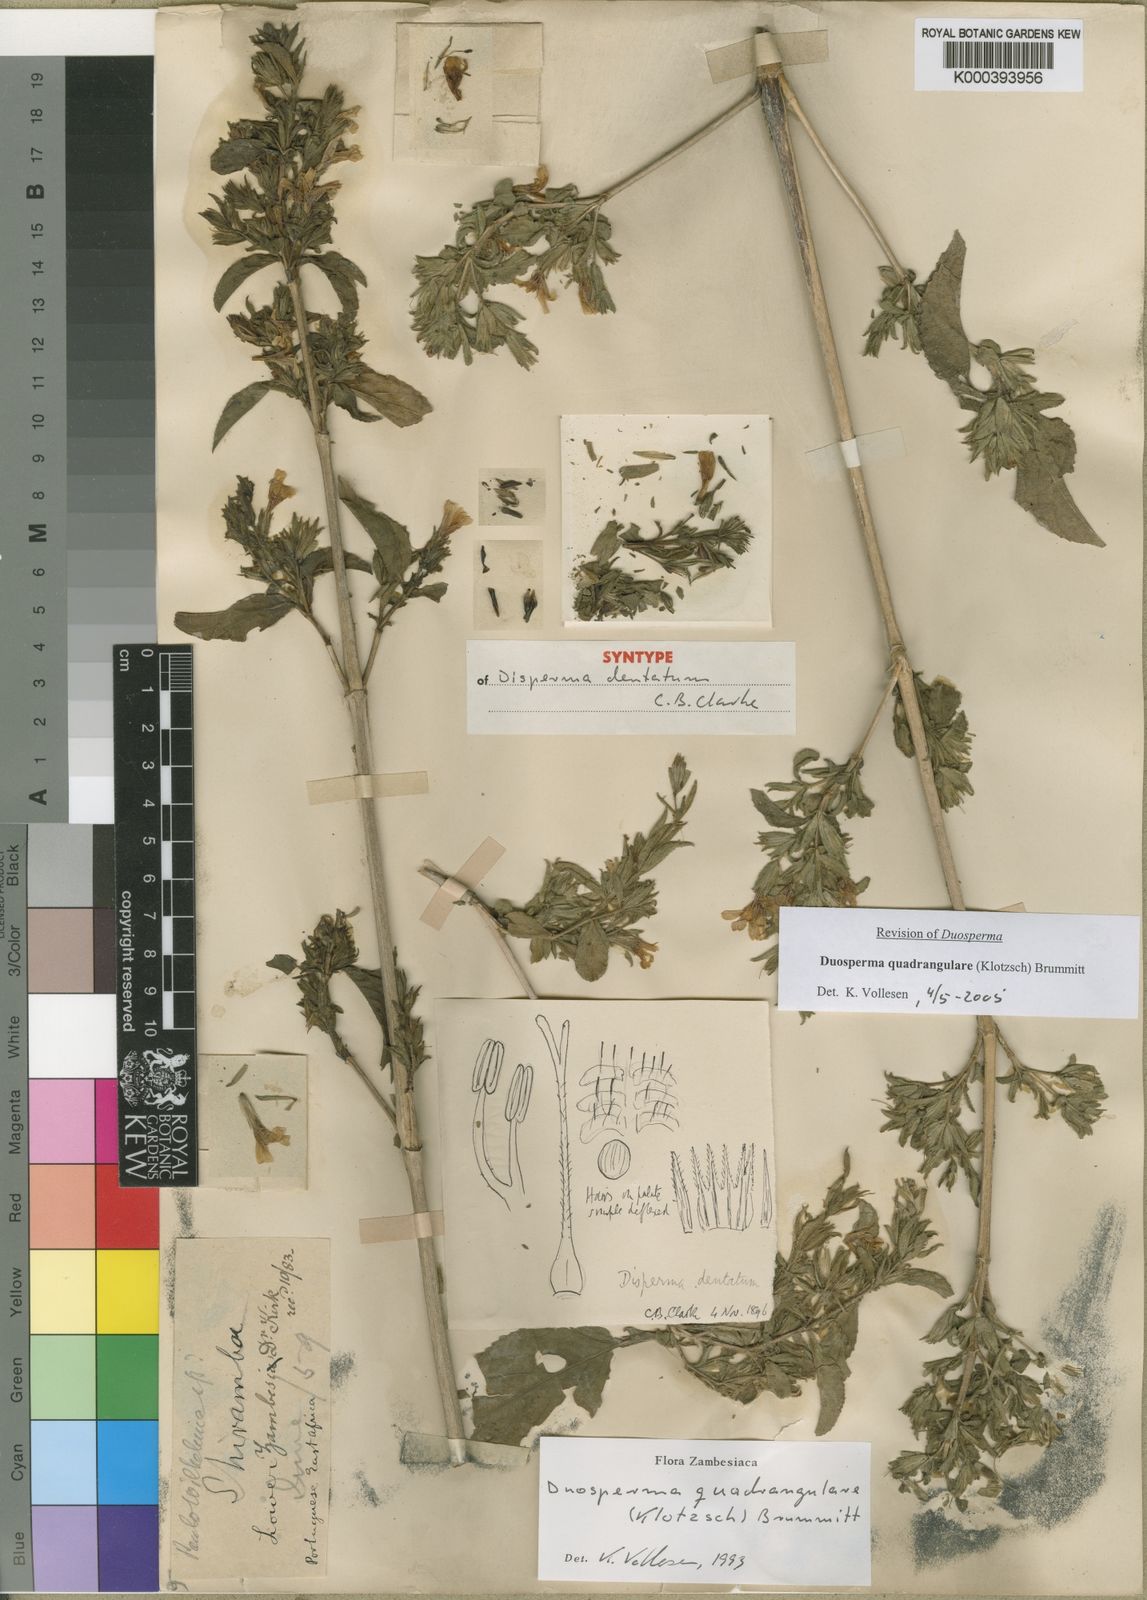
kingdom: Plantae
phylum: Tracheophyta
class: Magnoliopsida
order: Lamiales
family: Acanthaceae
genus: Duosperma
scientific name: Duosperma quadrangulare
